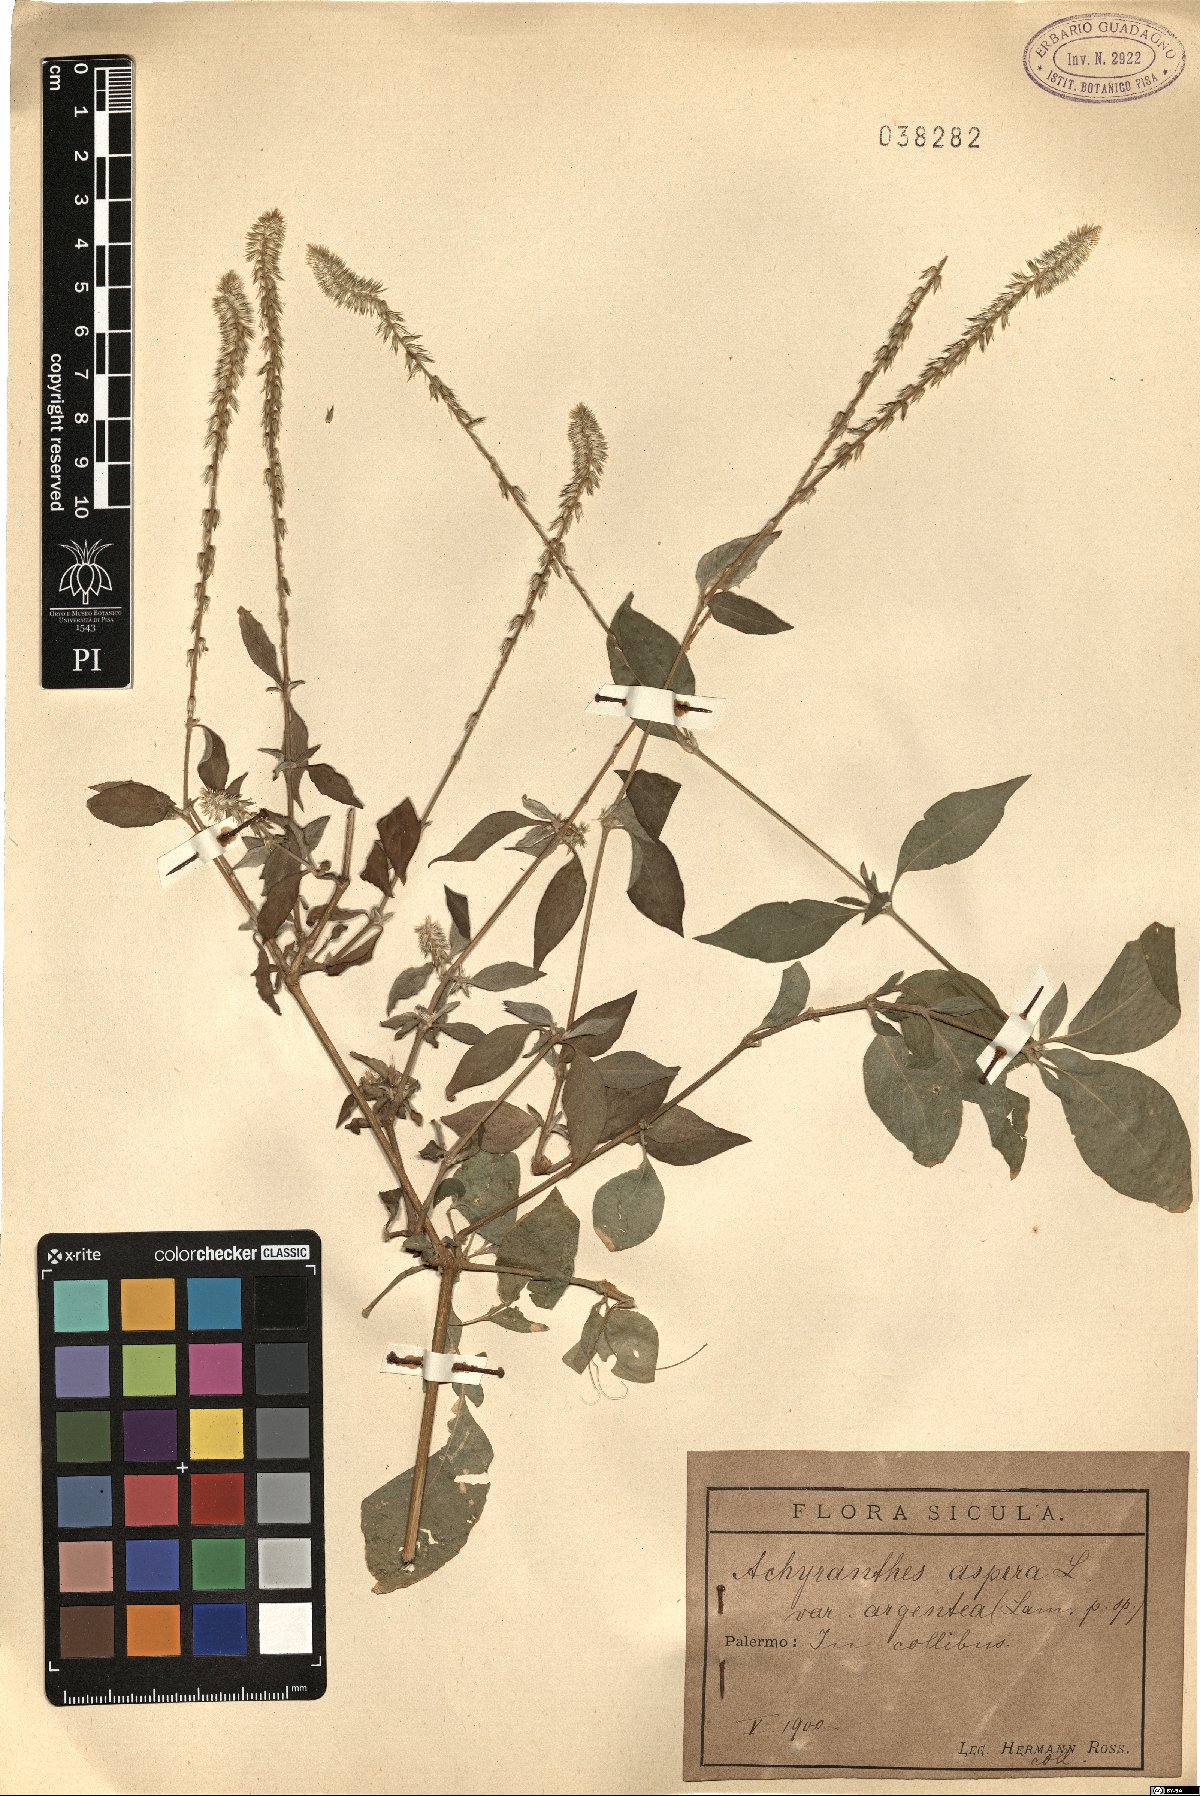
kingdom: Plantae
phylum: Tracheophyta
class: Magnoliopsida
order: Caryophyllales
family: Amaranthaceae
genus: Achyranthes
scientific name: Achyranthes sicula
